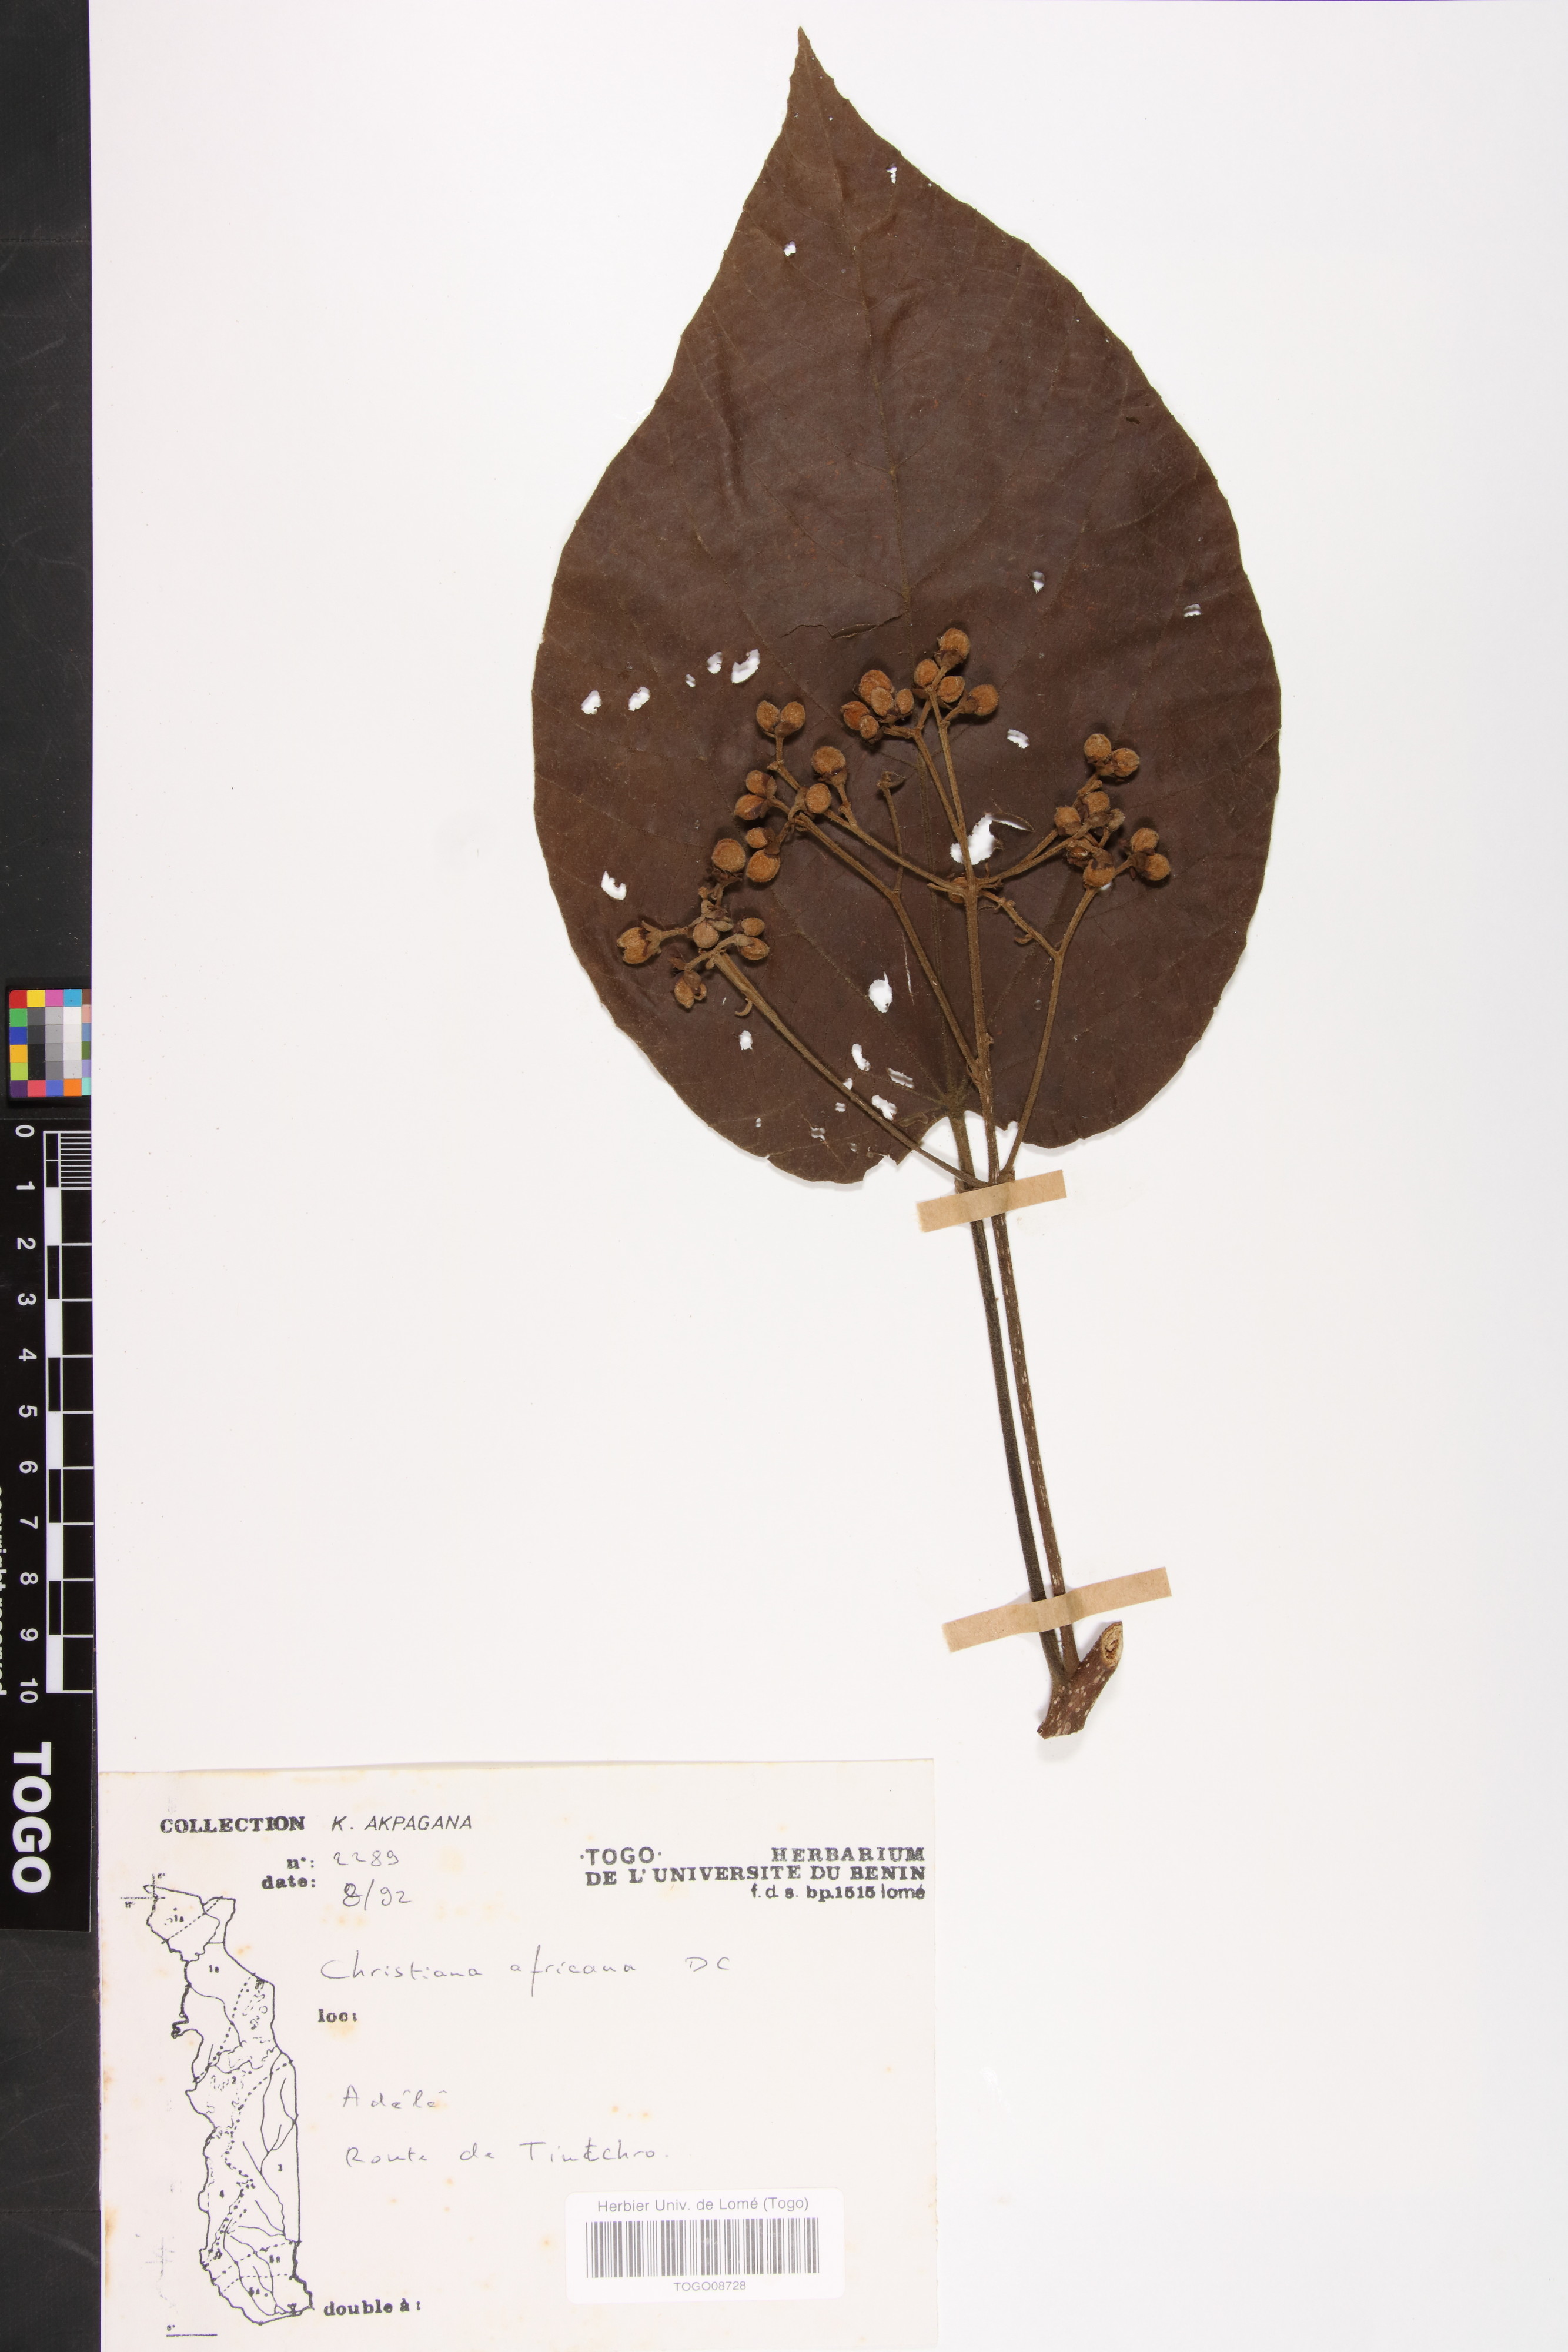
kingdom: Plantae
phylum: Tracheophyta
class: Magnoliopsida
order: Malvales
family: Malvaceae
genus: Christiana
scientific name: Christiana africana
